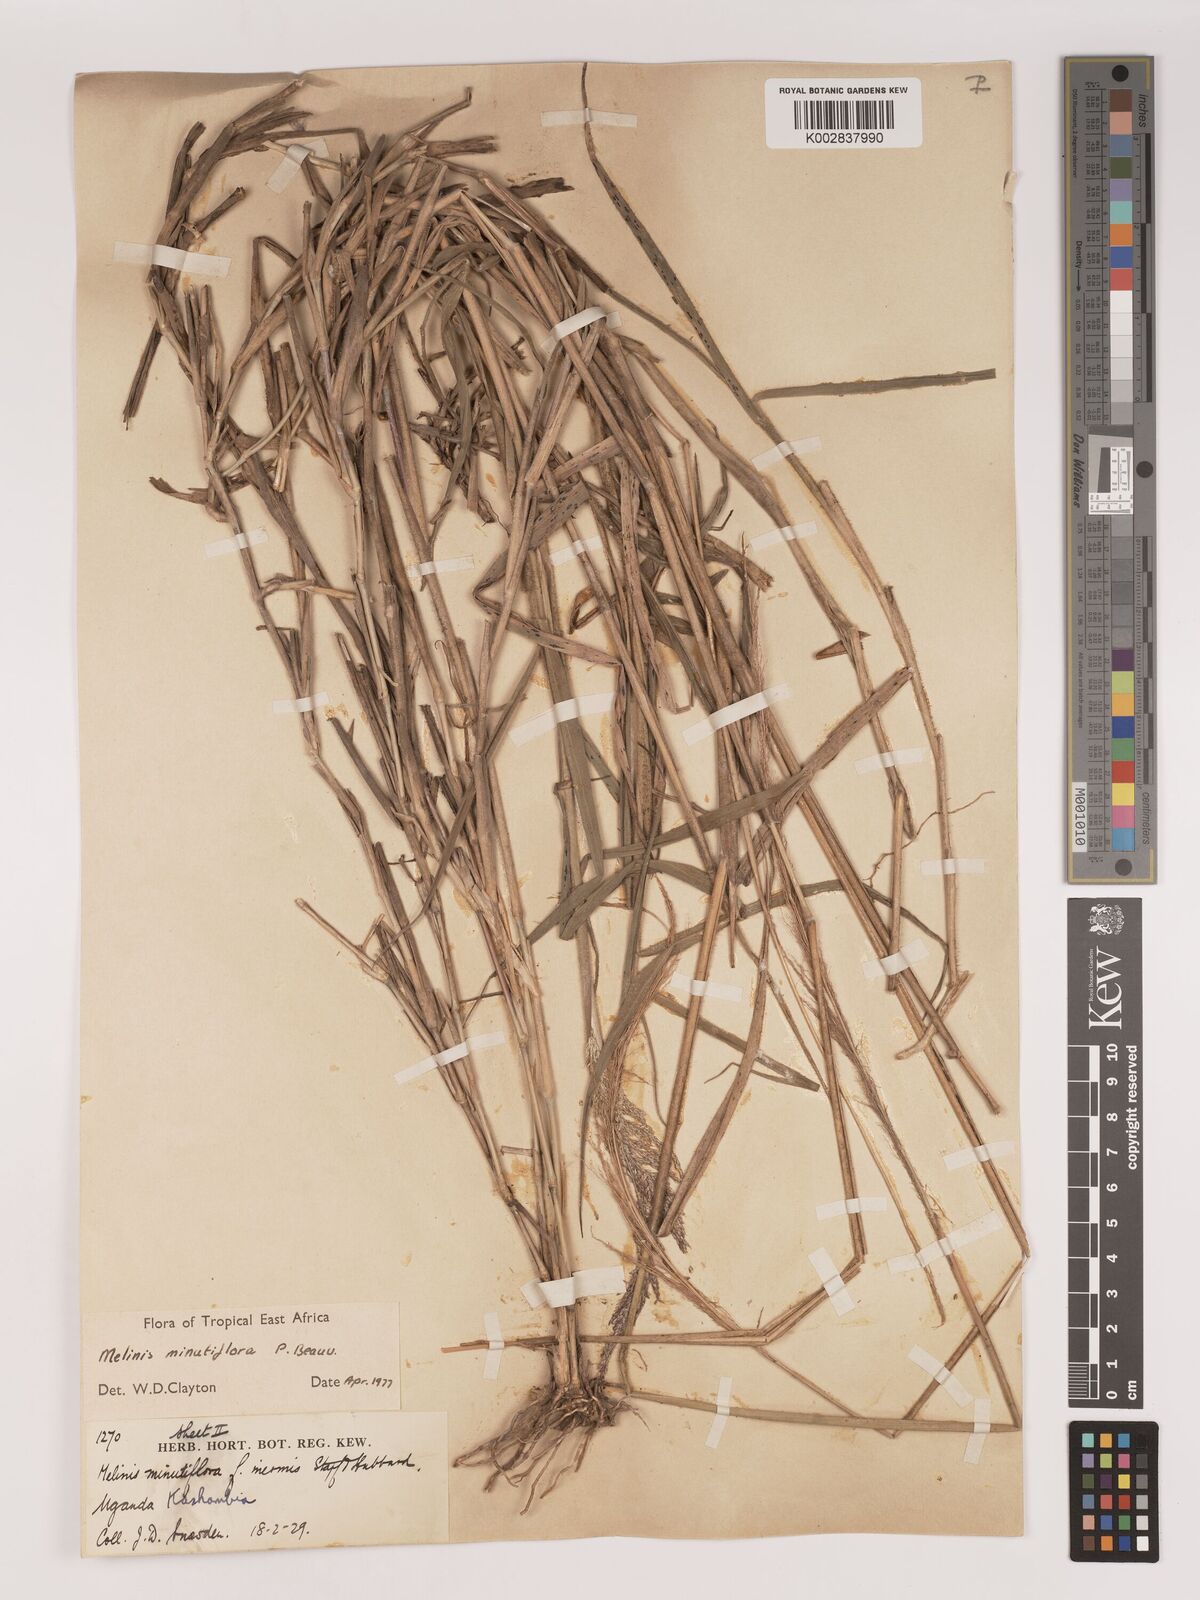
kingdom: Plantae
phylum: Tracheophyta
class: Liliopsida
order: Poales
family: Poaceae
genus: Melinis
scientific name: Melinis minutiflora
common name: Molassesgrass
